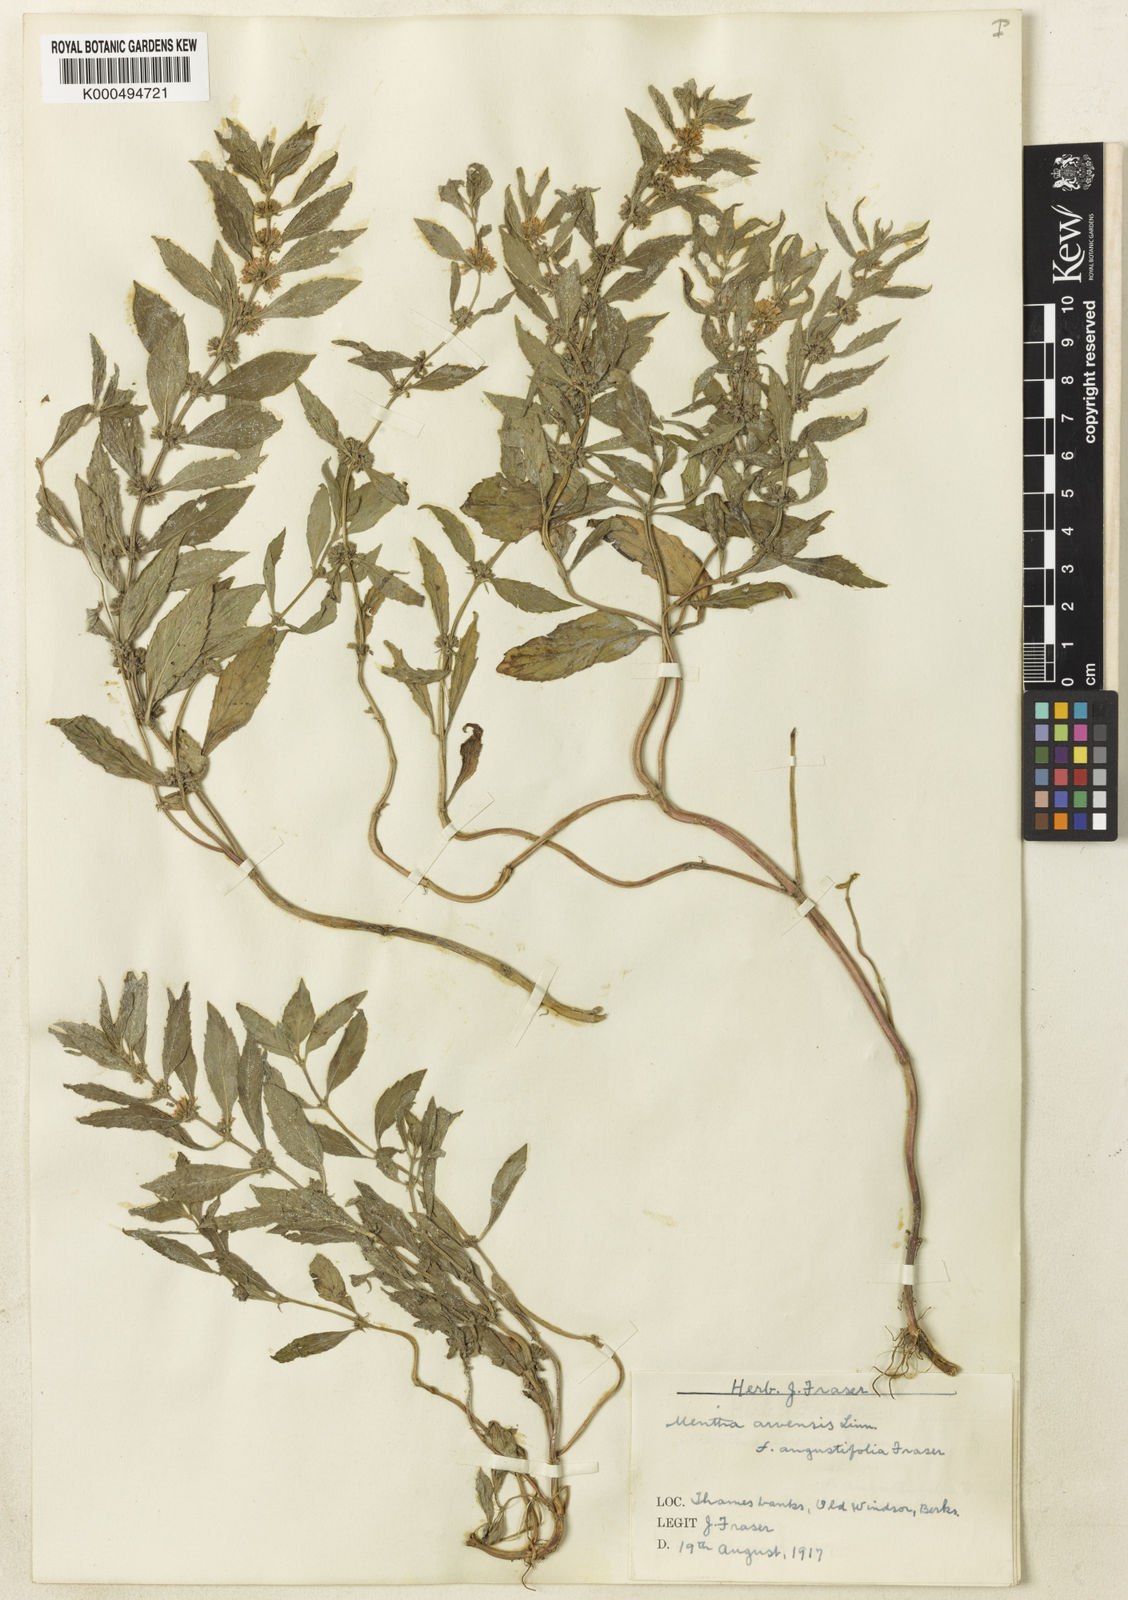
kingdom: Plantae
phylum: Tracheophyta
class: Magnoliopsida
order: Lamiales
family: Lamiaceae
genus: Mentha
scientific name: Mentha arvensis
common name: Corn mint
